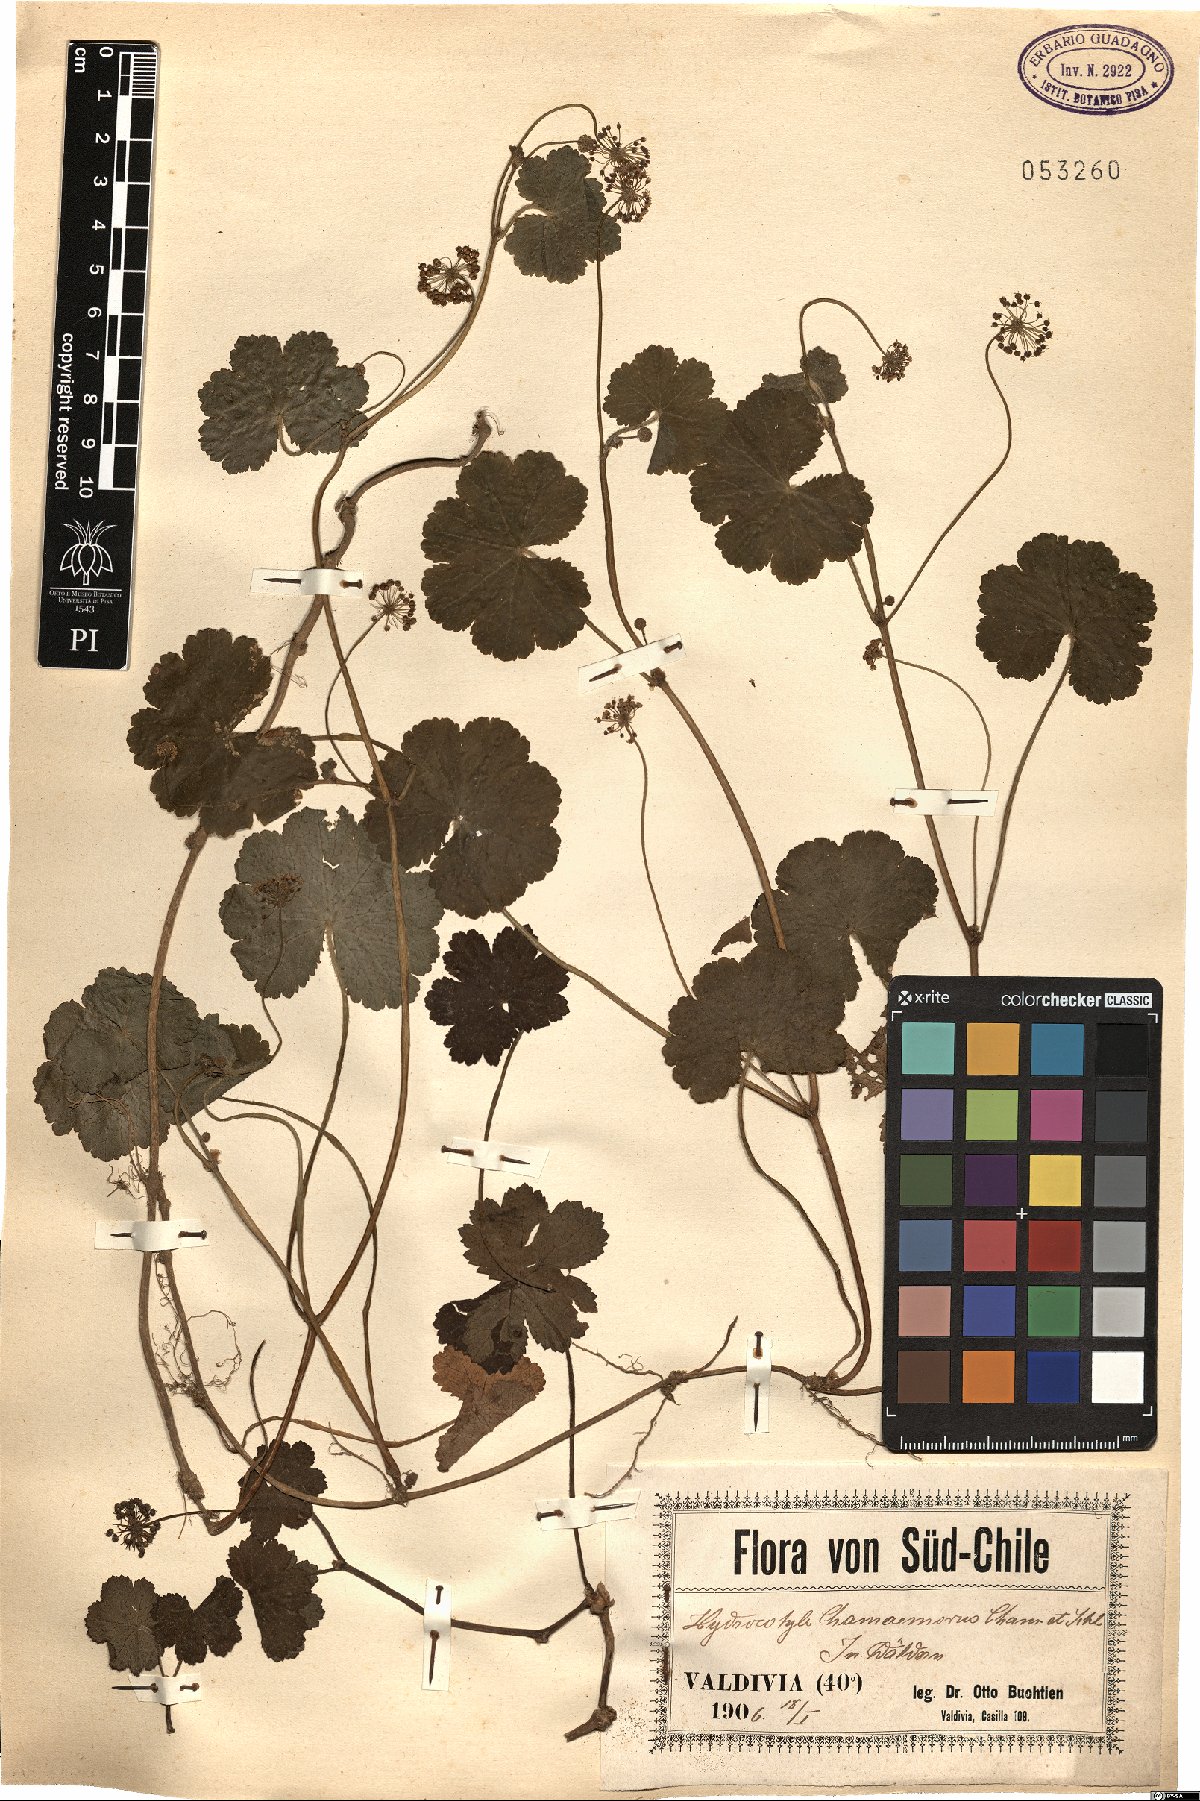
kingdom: Plantae
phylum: Tracheophyta
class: Magnoliopsida
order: Apiales
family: Araliaceae
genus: Hydrocotyle
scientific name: Hydrocotyle chamaemorus
